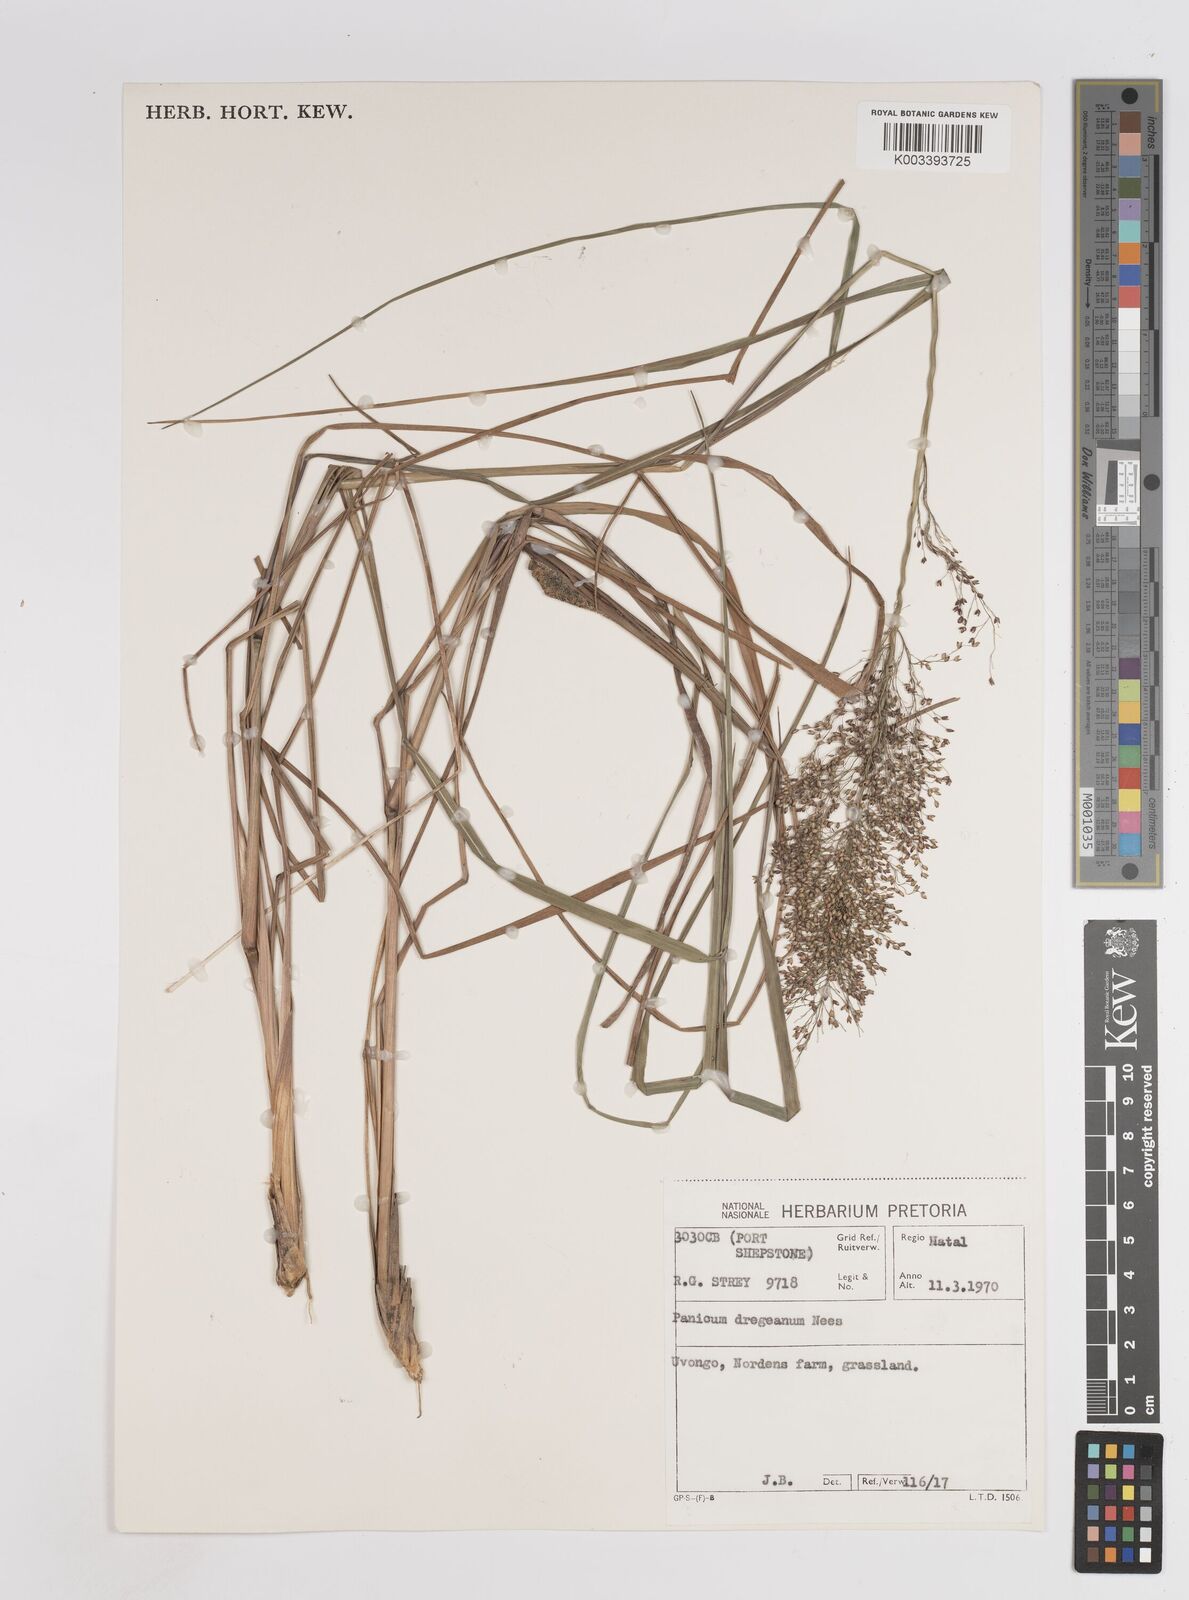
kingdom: Plantae
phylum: Tracheophyta
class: Liliopsida
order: Poales
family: Poaceae
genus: Panicum
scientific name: Panicum dregeanum
